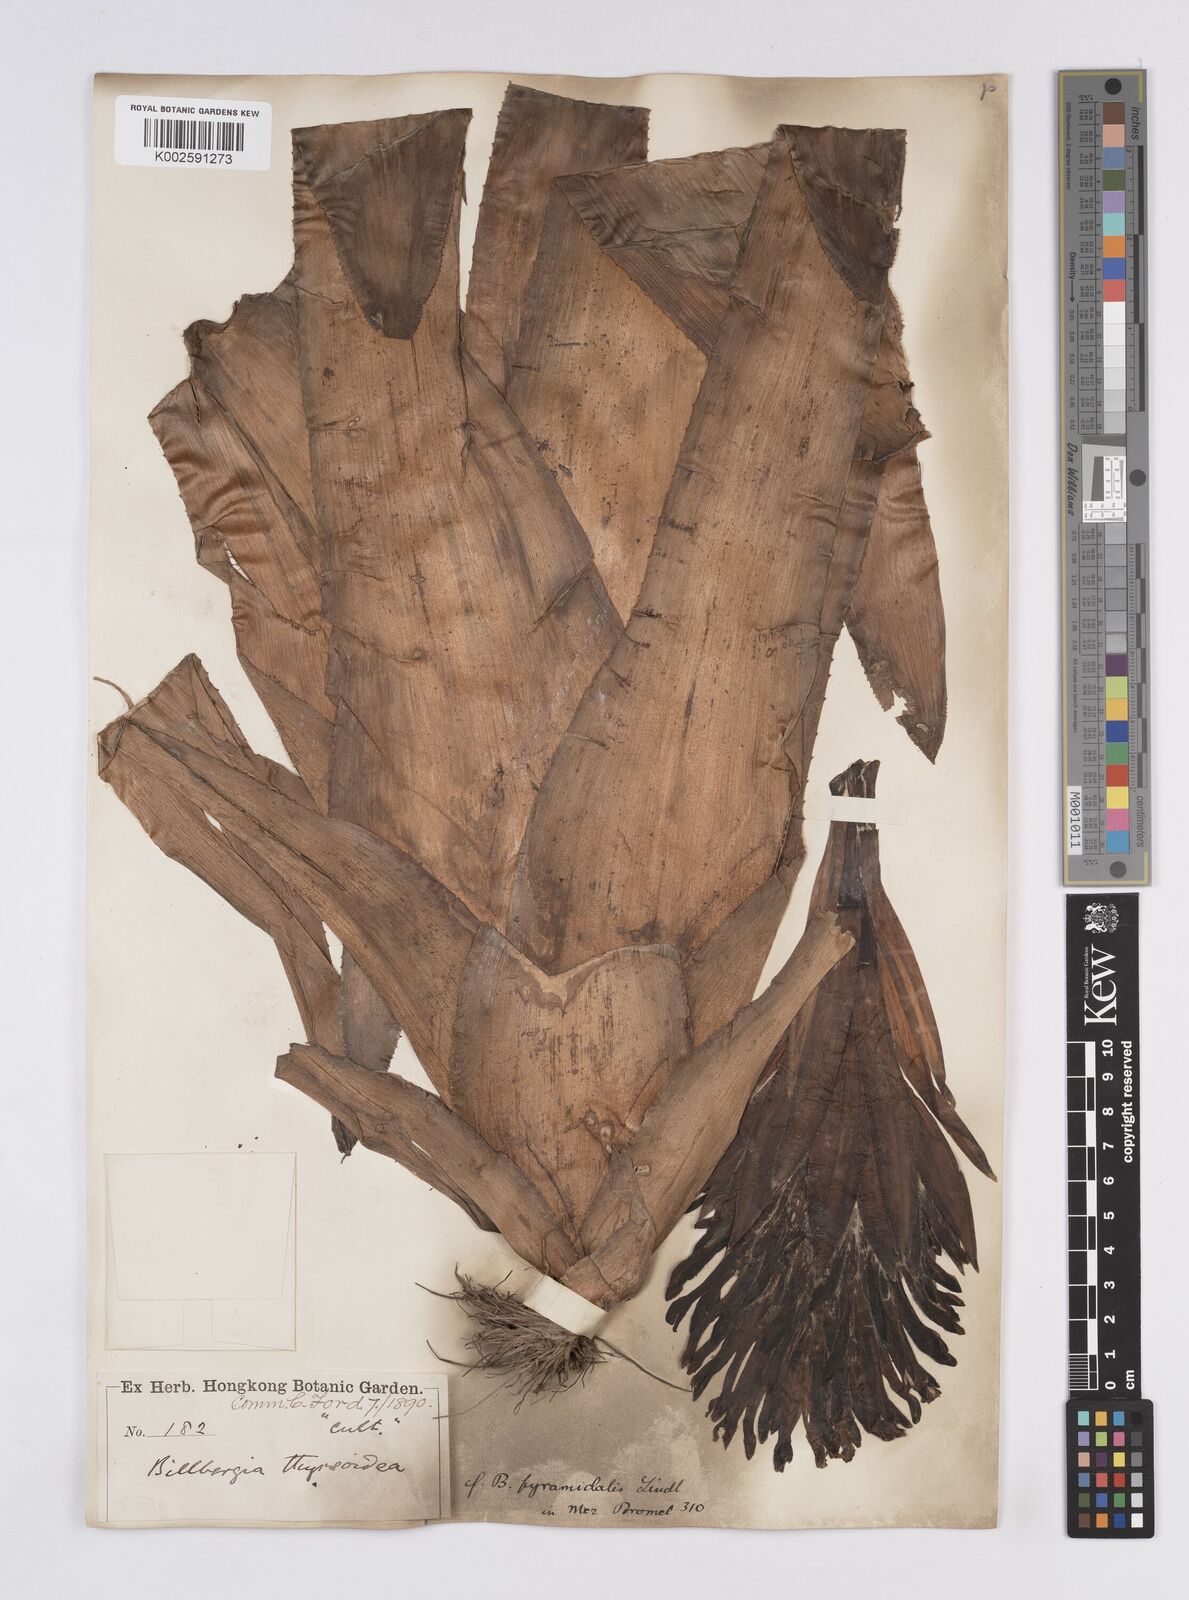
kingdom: Plantae
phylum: Tracheophyta
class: Liliopsida
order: Poales
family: Bromeliaceae
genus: Billbergia
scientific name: Billbergia pyramidalis
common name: Foolproofplant
